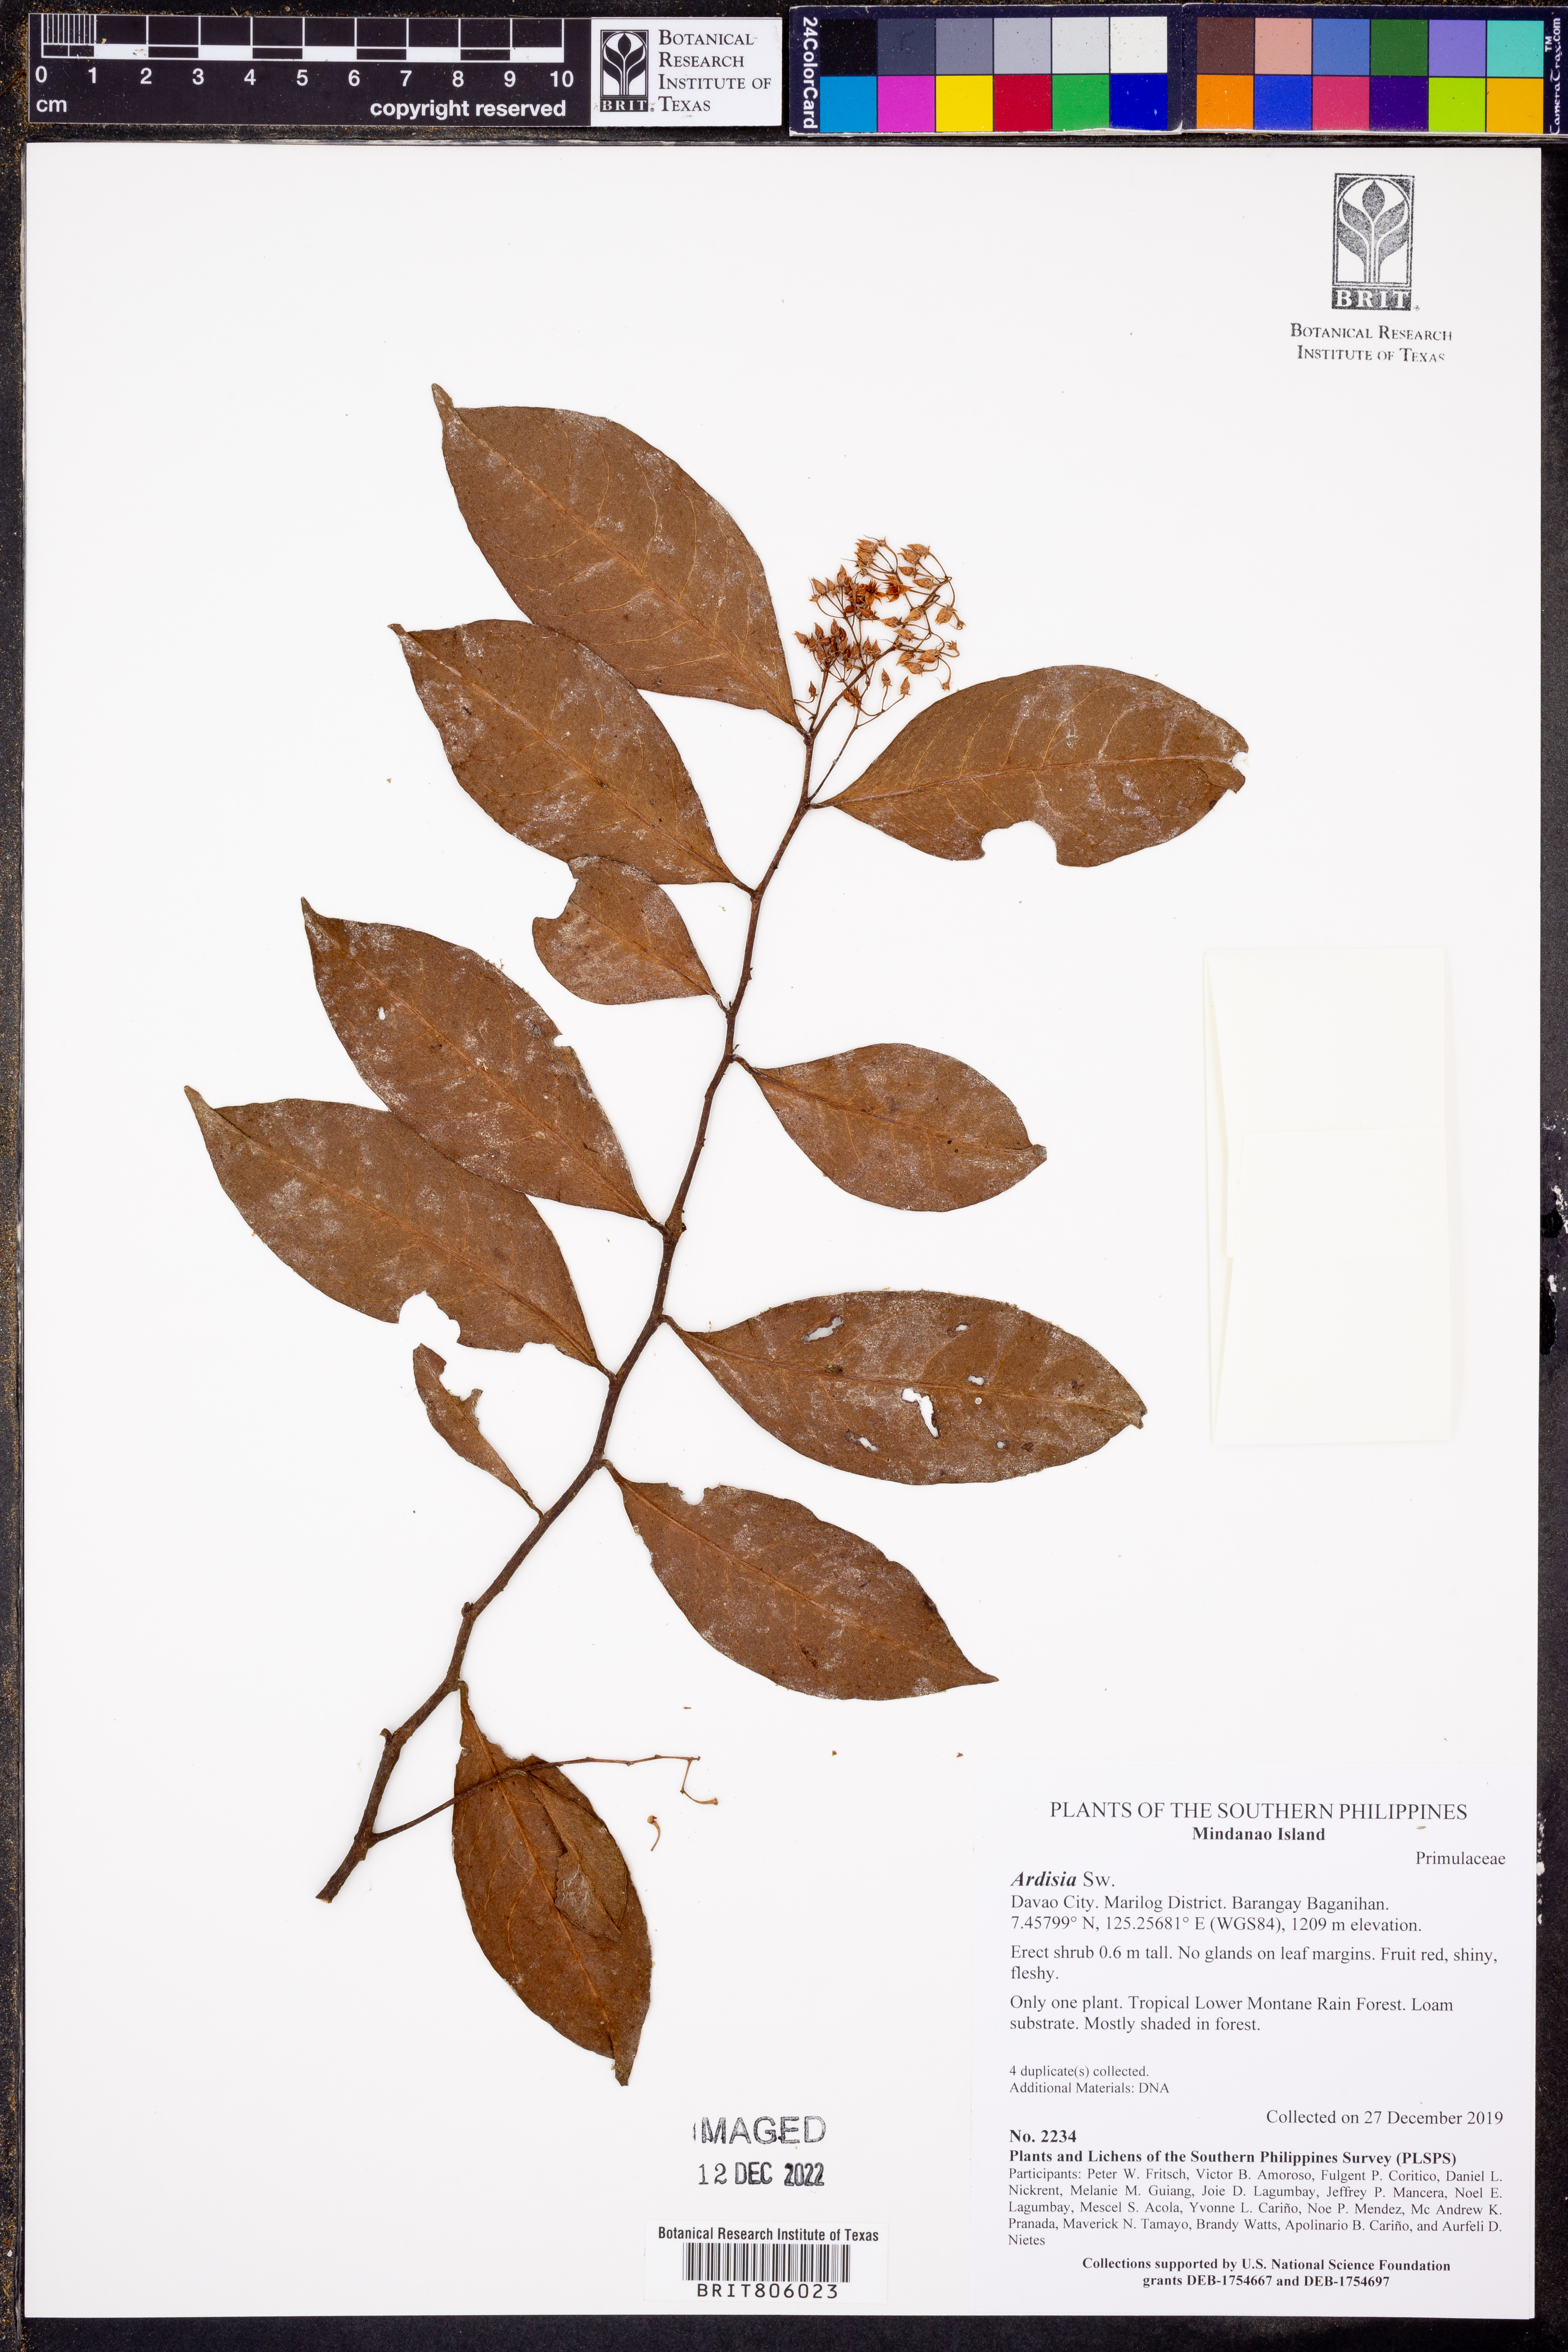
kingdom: Plantae
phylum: Tracheophyta
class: Magnoliopsida
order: Ericales
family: Primulaceae
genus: Ardisia
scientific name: Ardisia
